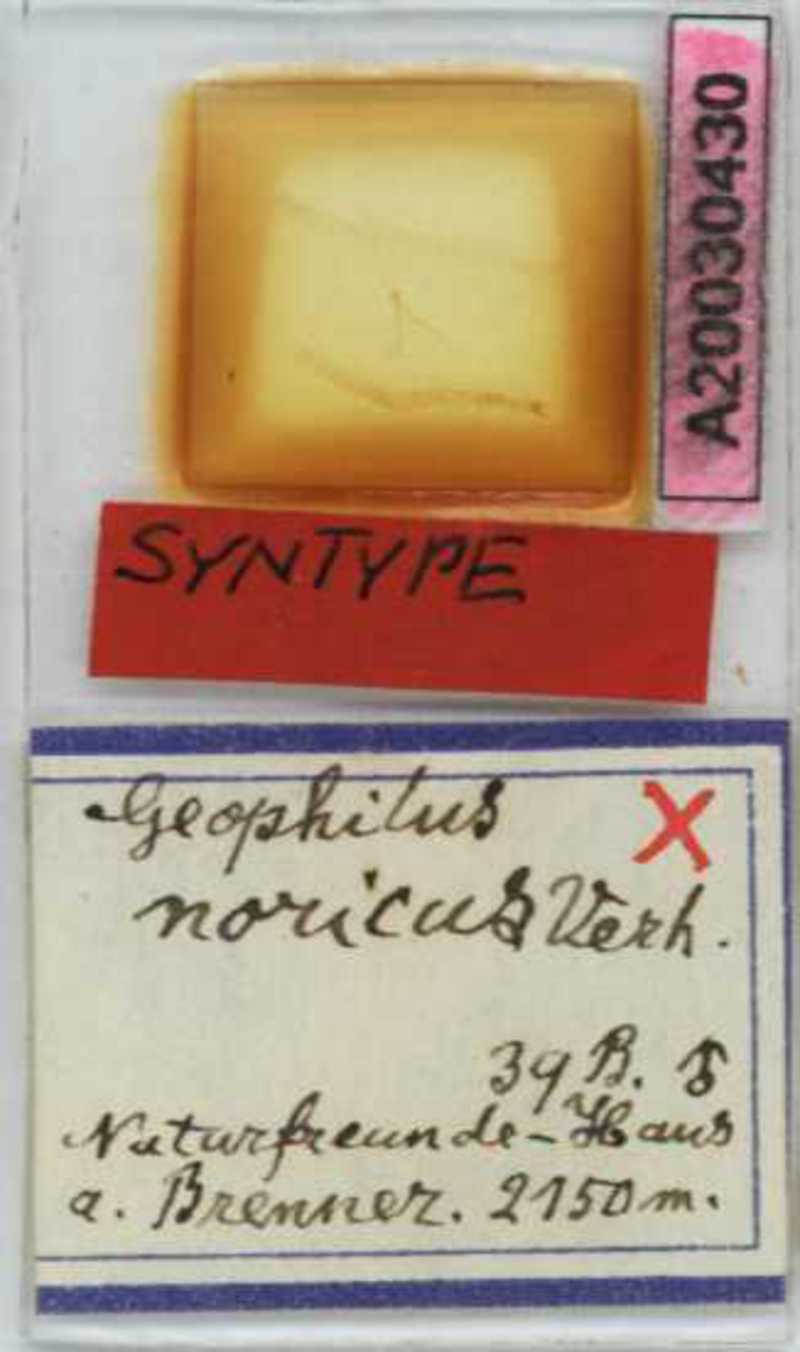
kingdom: Animalia
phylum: Arthropoda
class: Chilopoda
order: Geophilomorpha
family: Geophilidae
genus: Geophilus
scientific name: Geophilus oligopus
